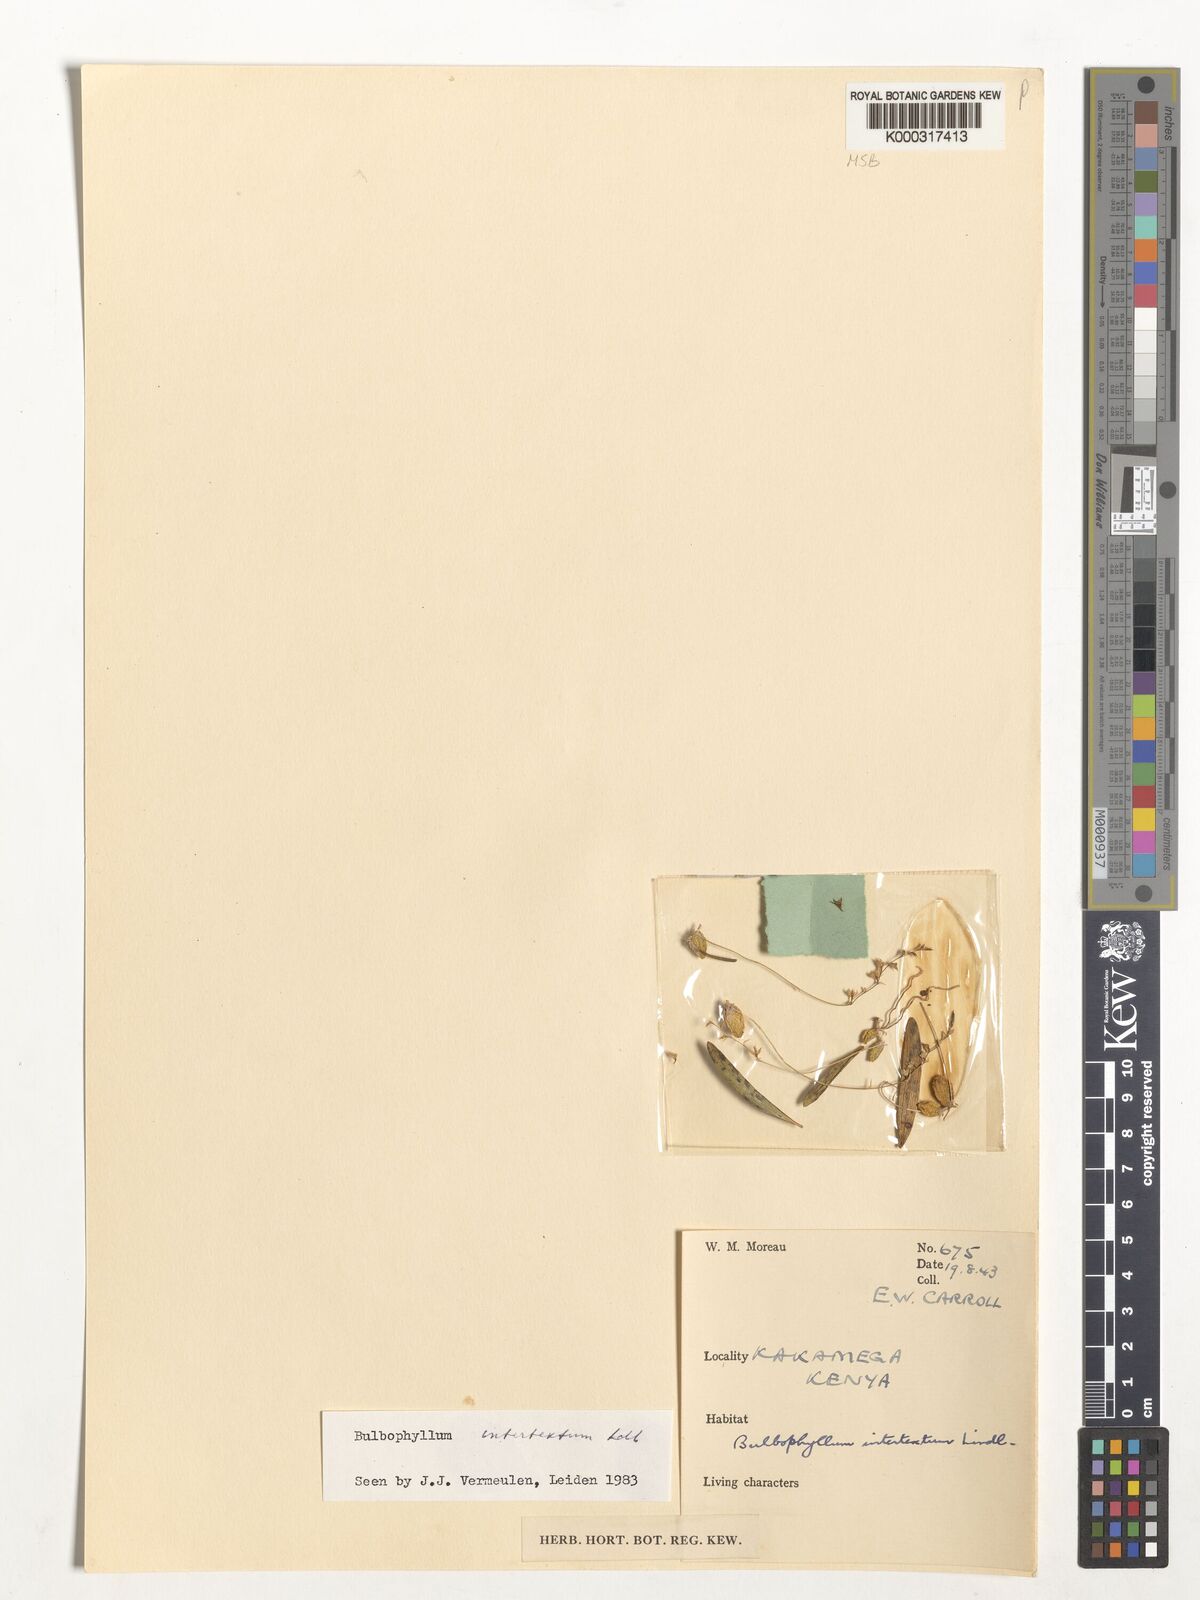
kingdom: Plantae
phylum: Tracheophyta
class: Liliopsida
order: Asparagales
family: Orchidaceae
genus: Bulbophyllum
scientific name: Bulbophyllum intertextum
